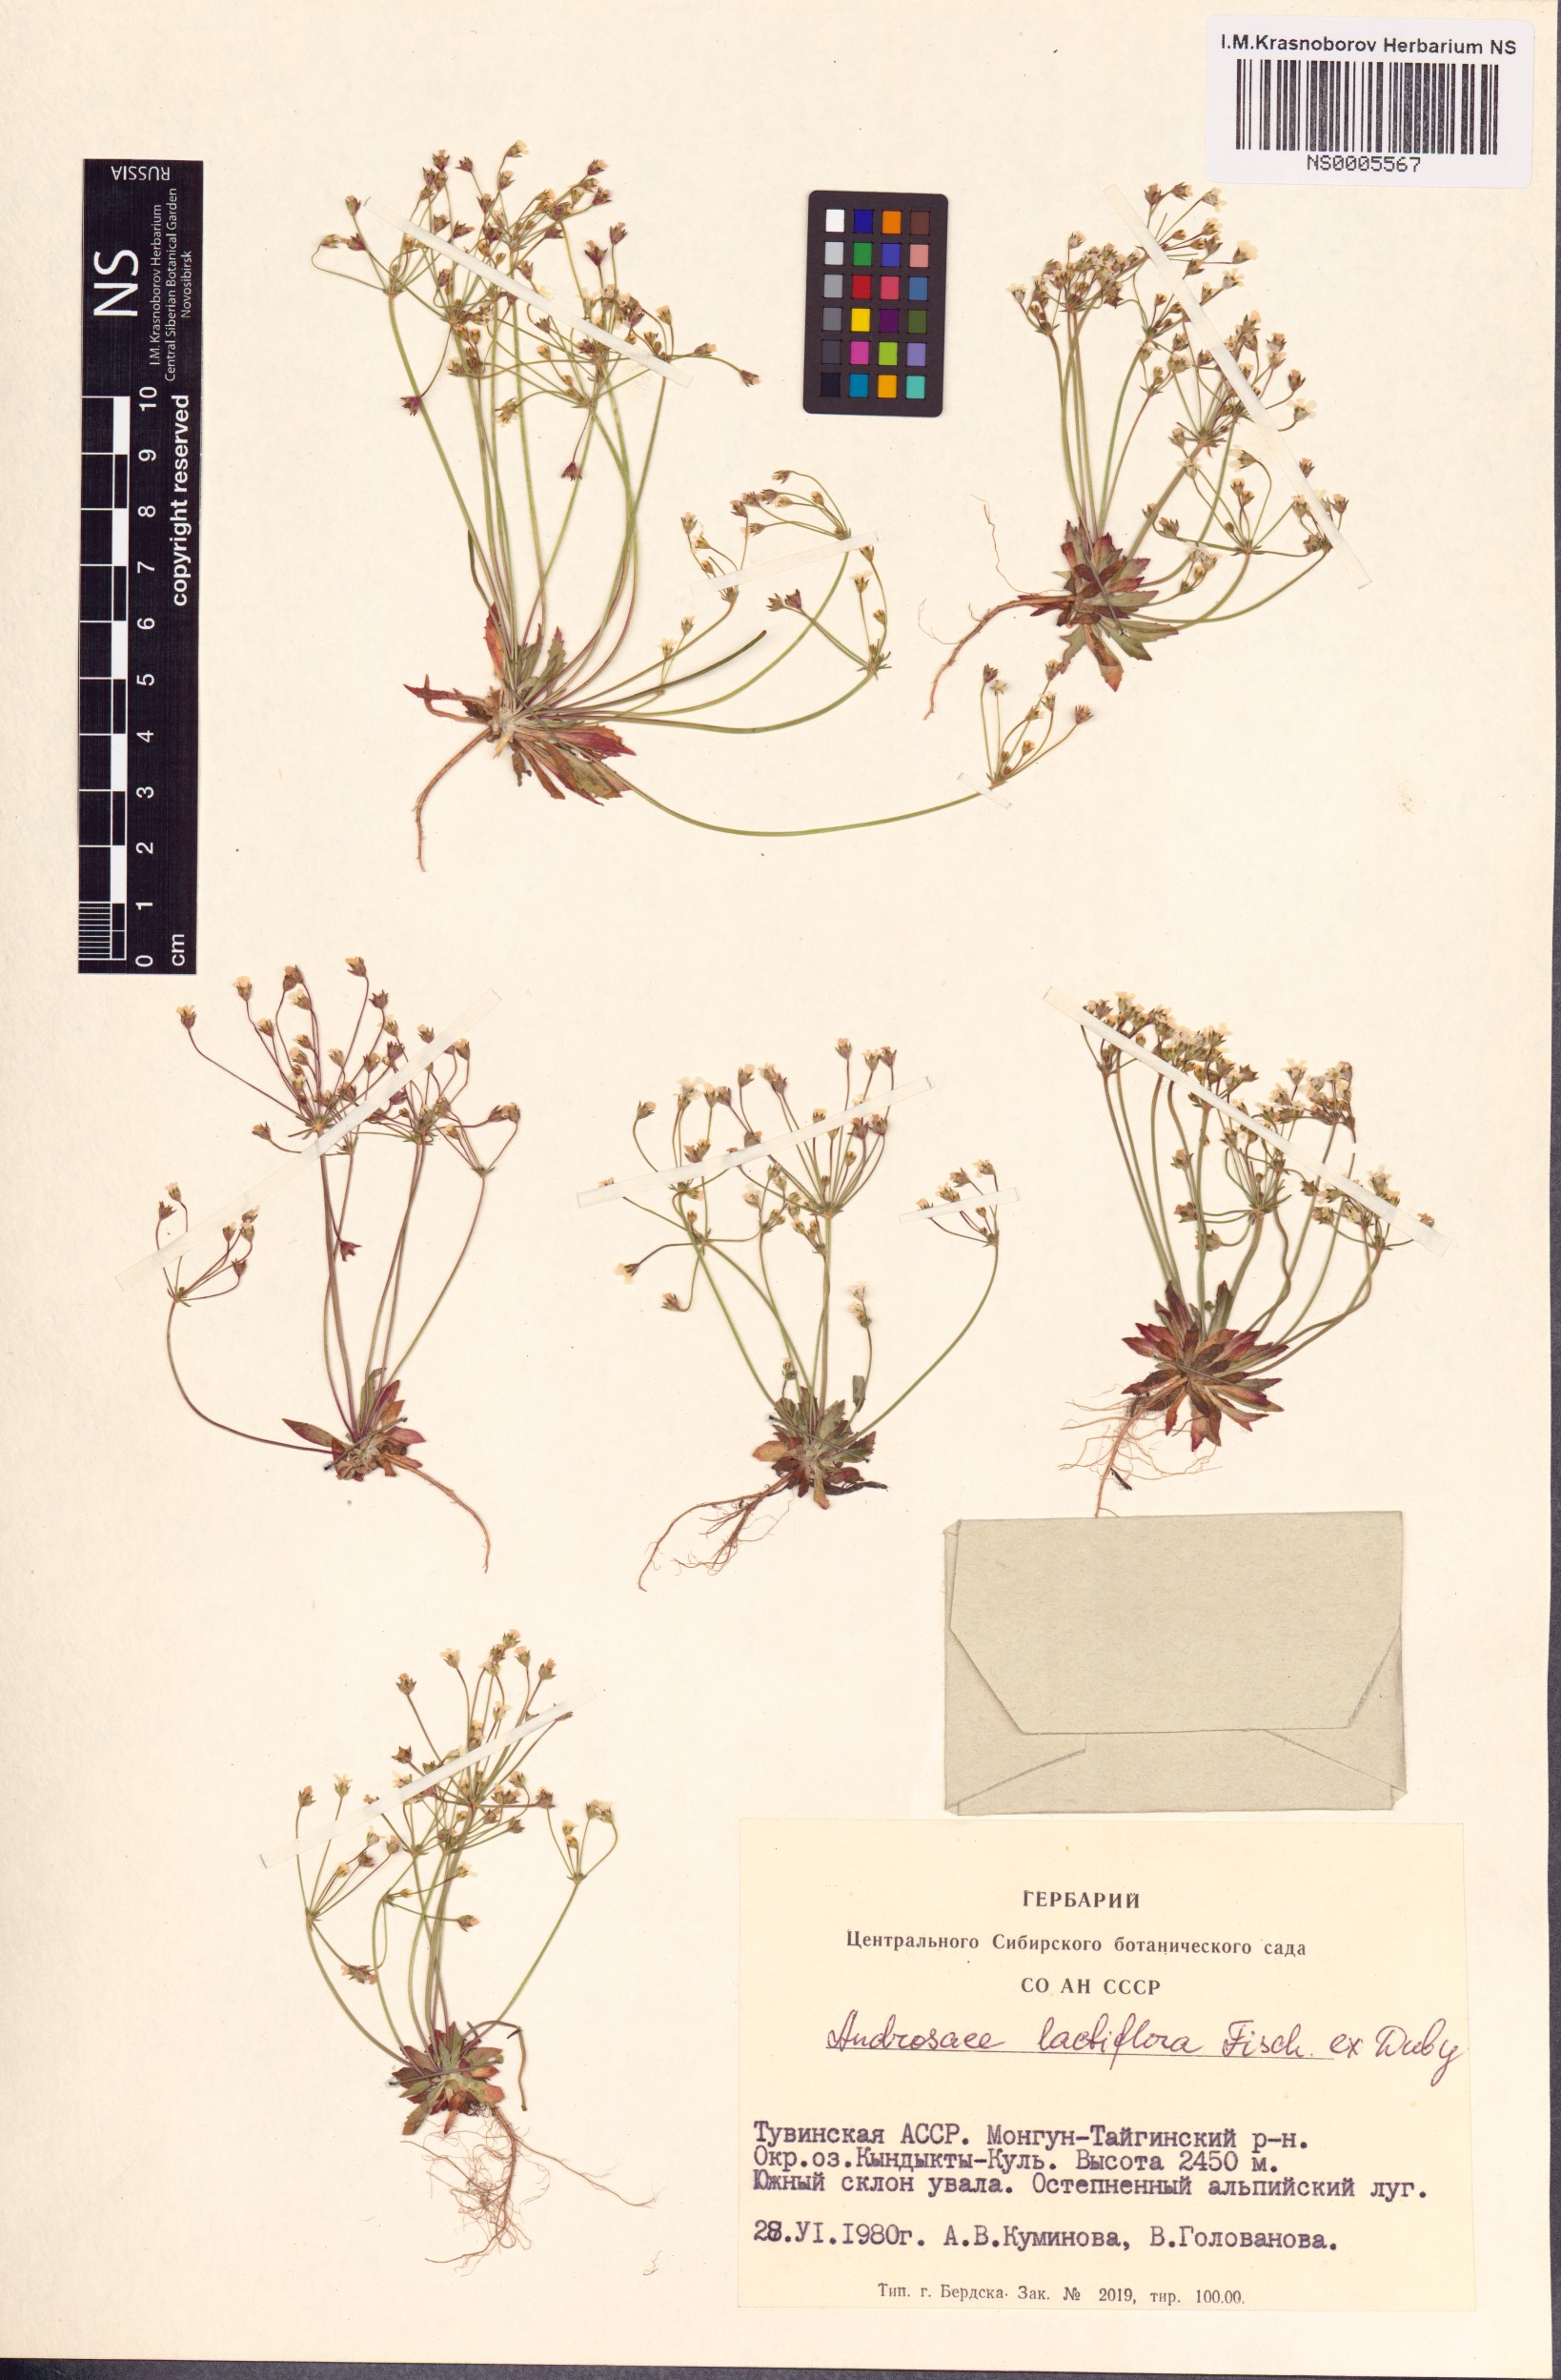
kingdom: Plantae
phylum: Tracheophyta
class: Magnoliopsida
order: Ericales
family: Primulaceae
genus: Androsace
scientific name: Androsace lactiflora
